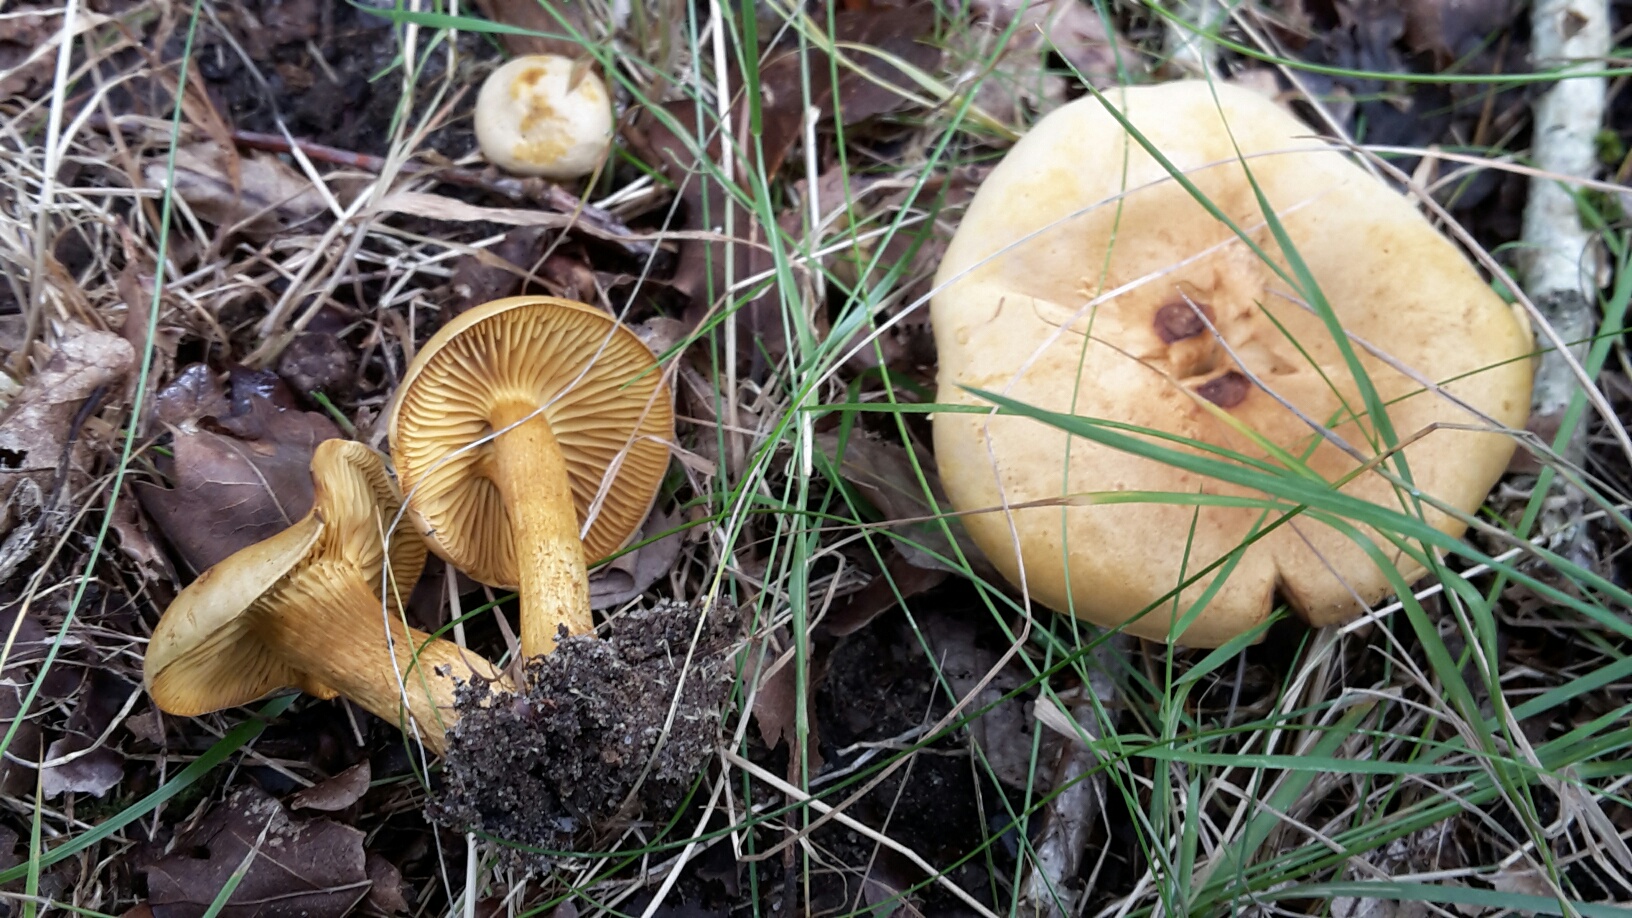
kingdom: Fungi
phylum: Basidiomycota
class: Agaricomycetes
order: Agaricales
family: Tricholomataceae
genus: Tricholoma
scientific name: Tricholoma sulphureum
